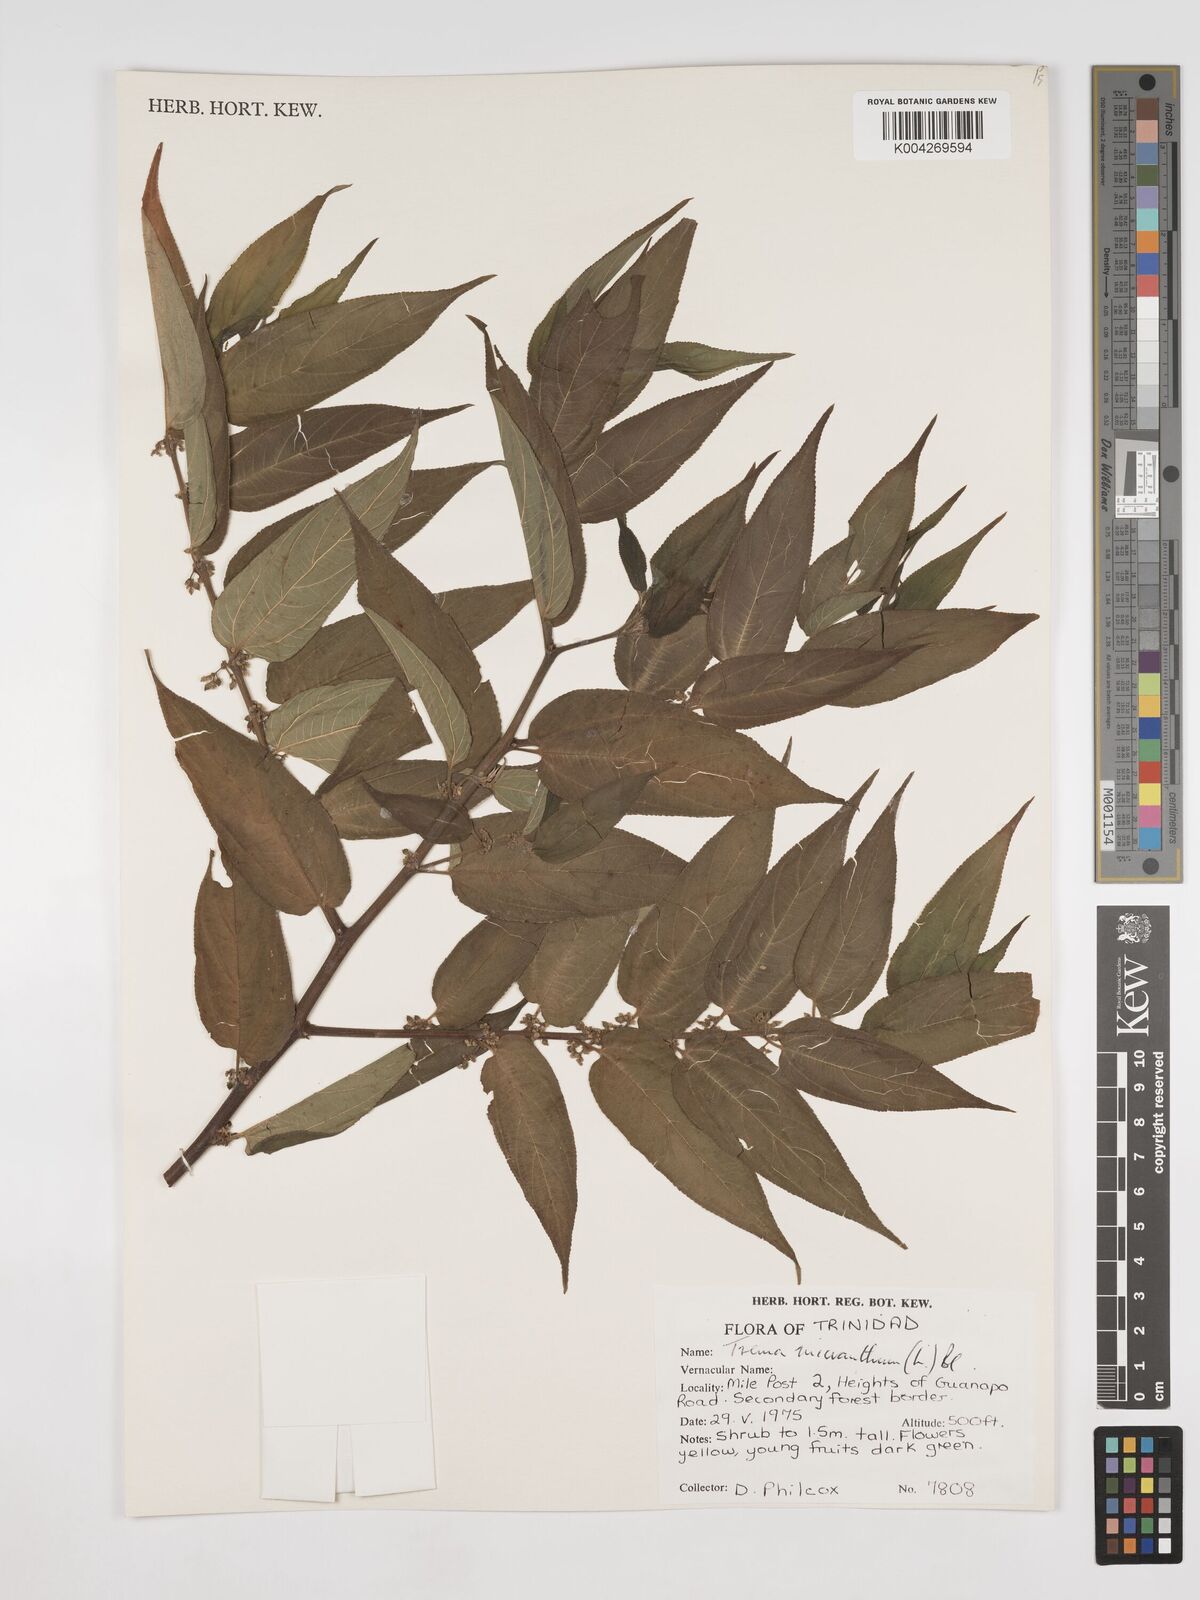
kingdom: Plantae
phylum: Tracheophyta
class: Magnoliopsida
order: Rosales
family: Cannabaceae
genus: Trema
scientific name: Trema micranthum
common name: Jamaican nettletree
